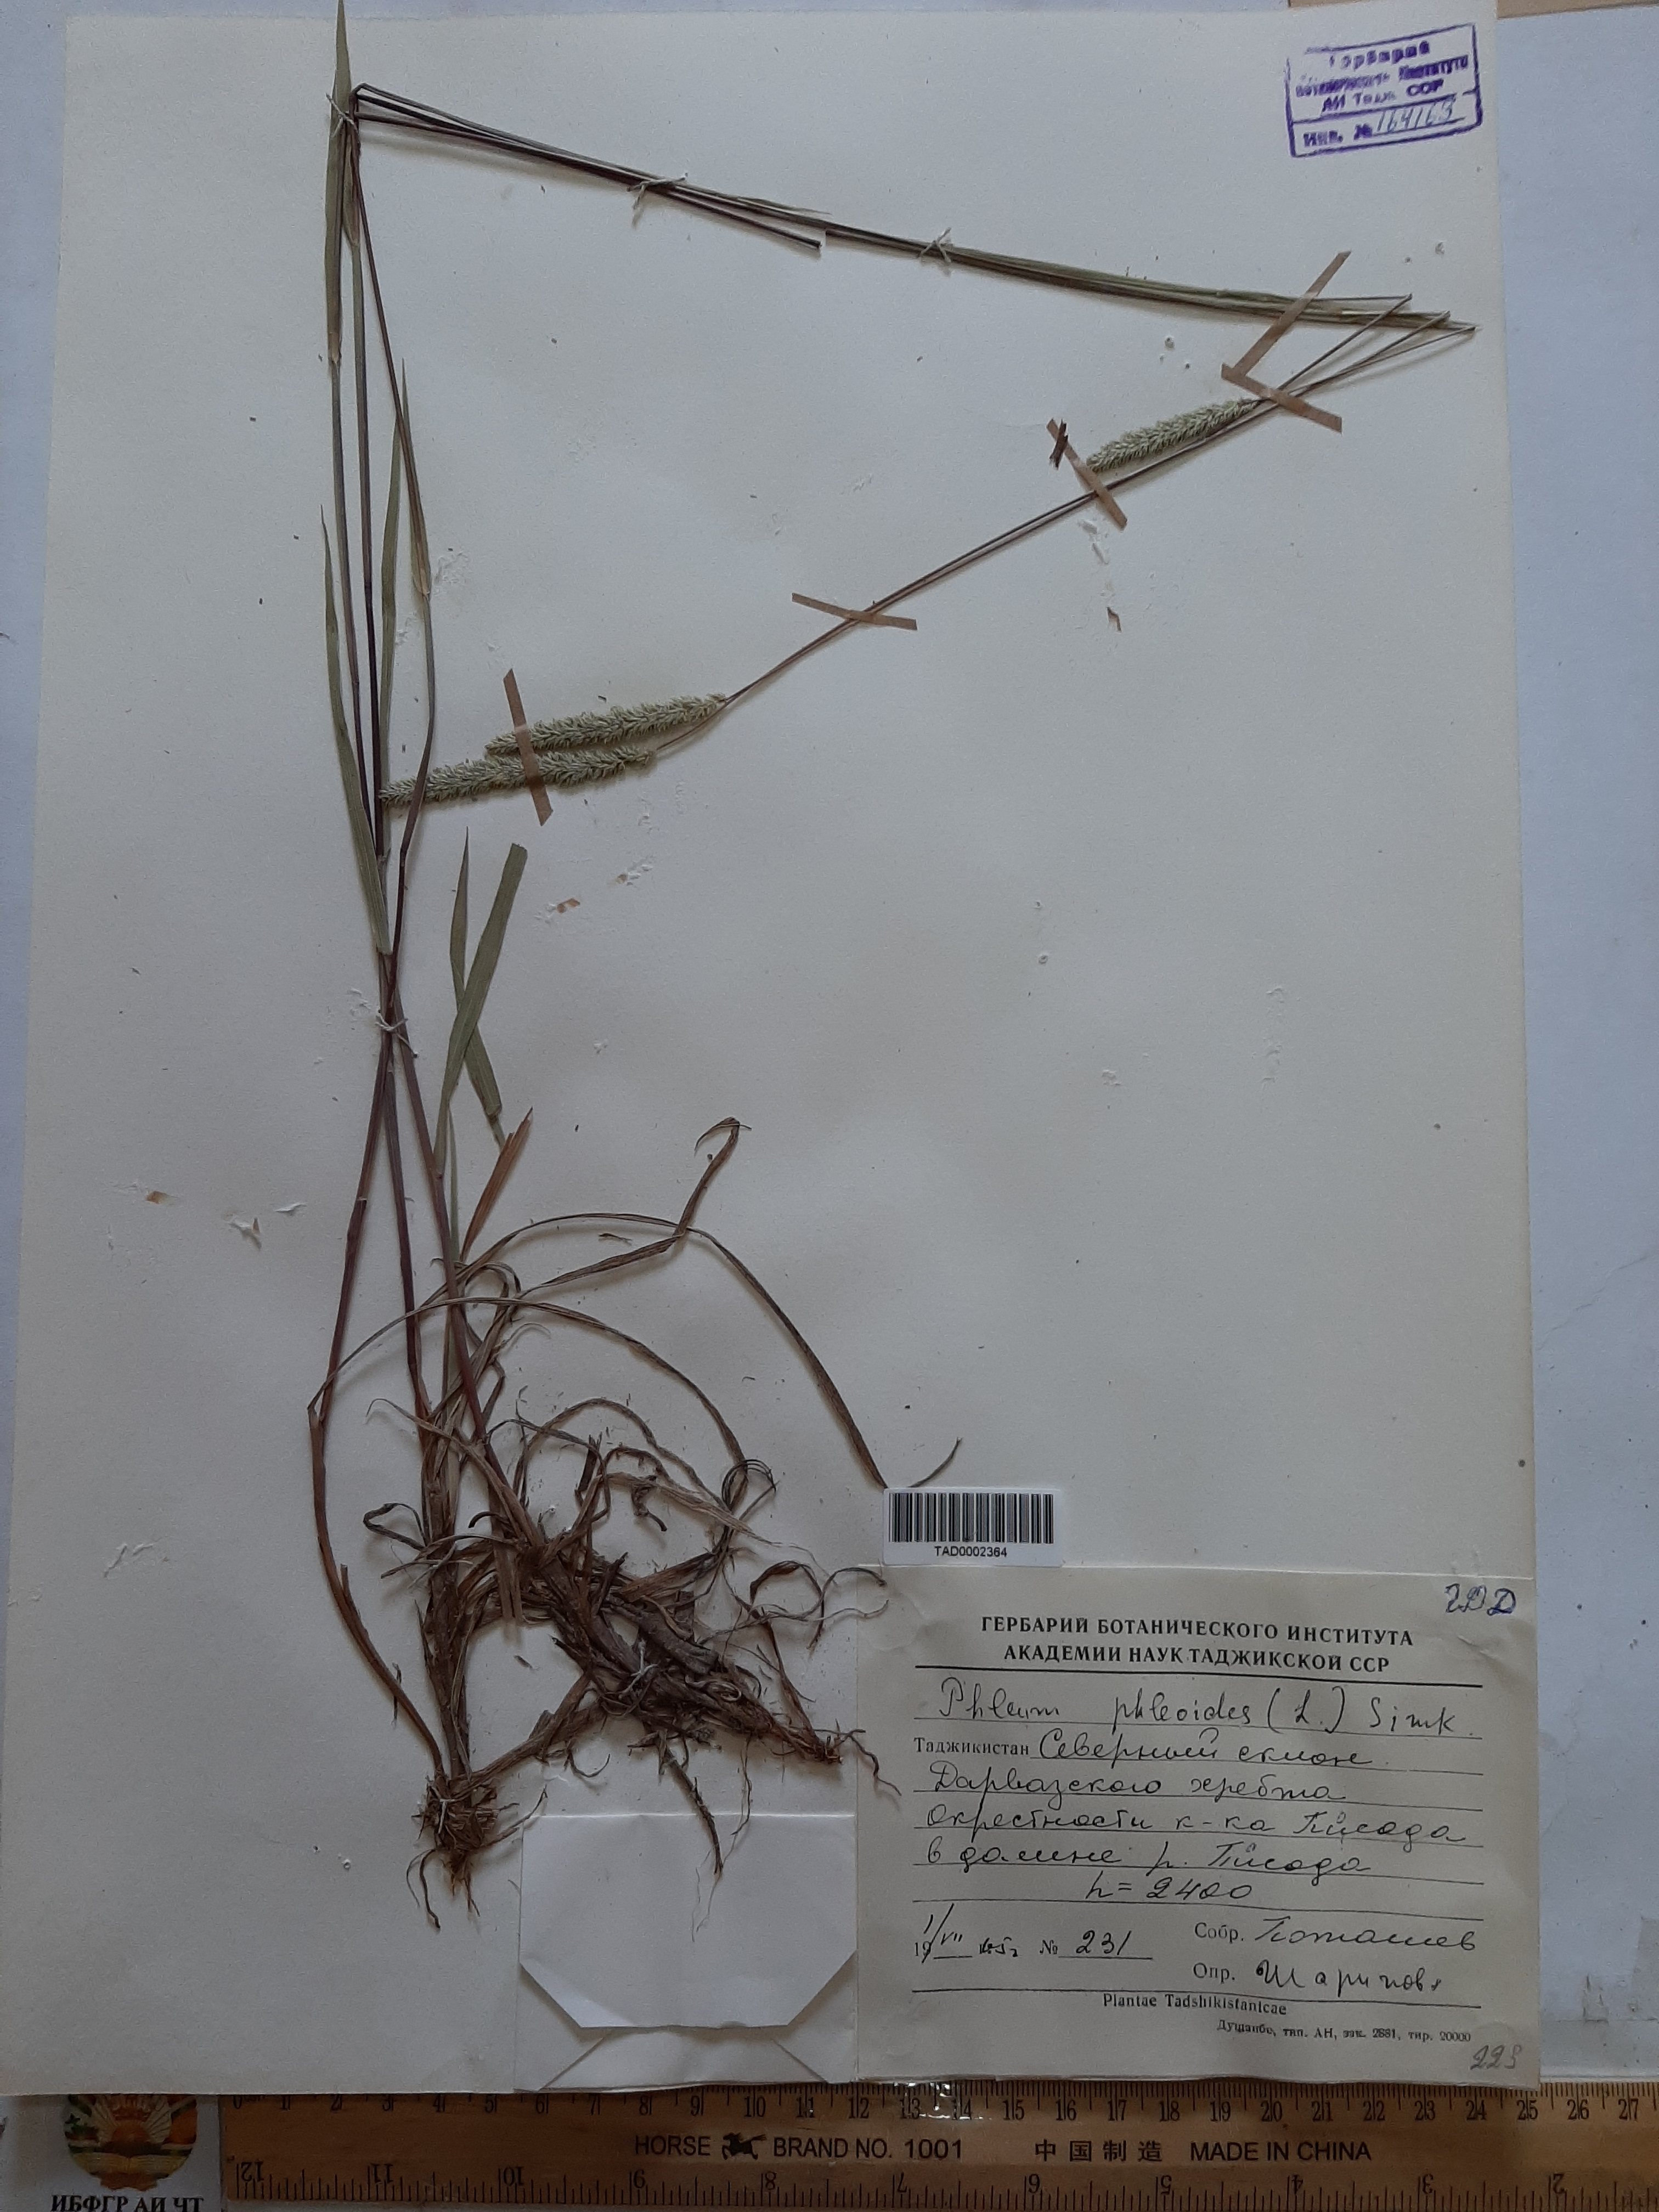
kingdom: Plantae
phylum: Tracheophyta
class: Liliopsida
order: Poales
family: Poaceae
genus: Phleum
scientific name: Phleum phleoides
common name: Purple-stem cat's-tail
